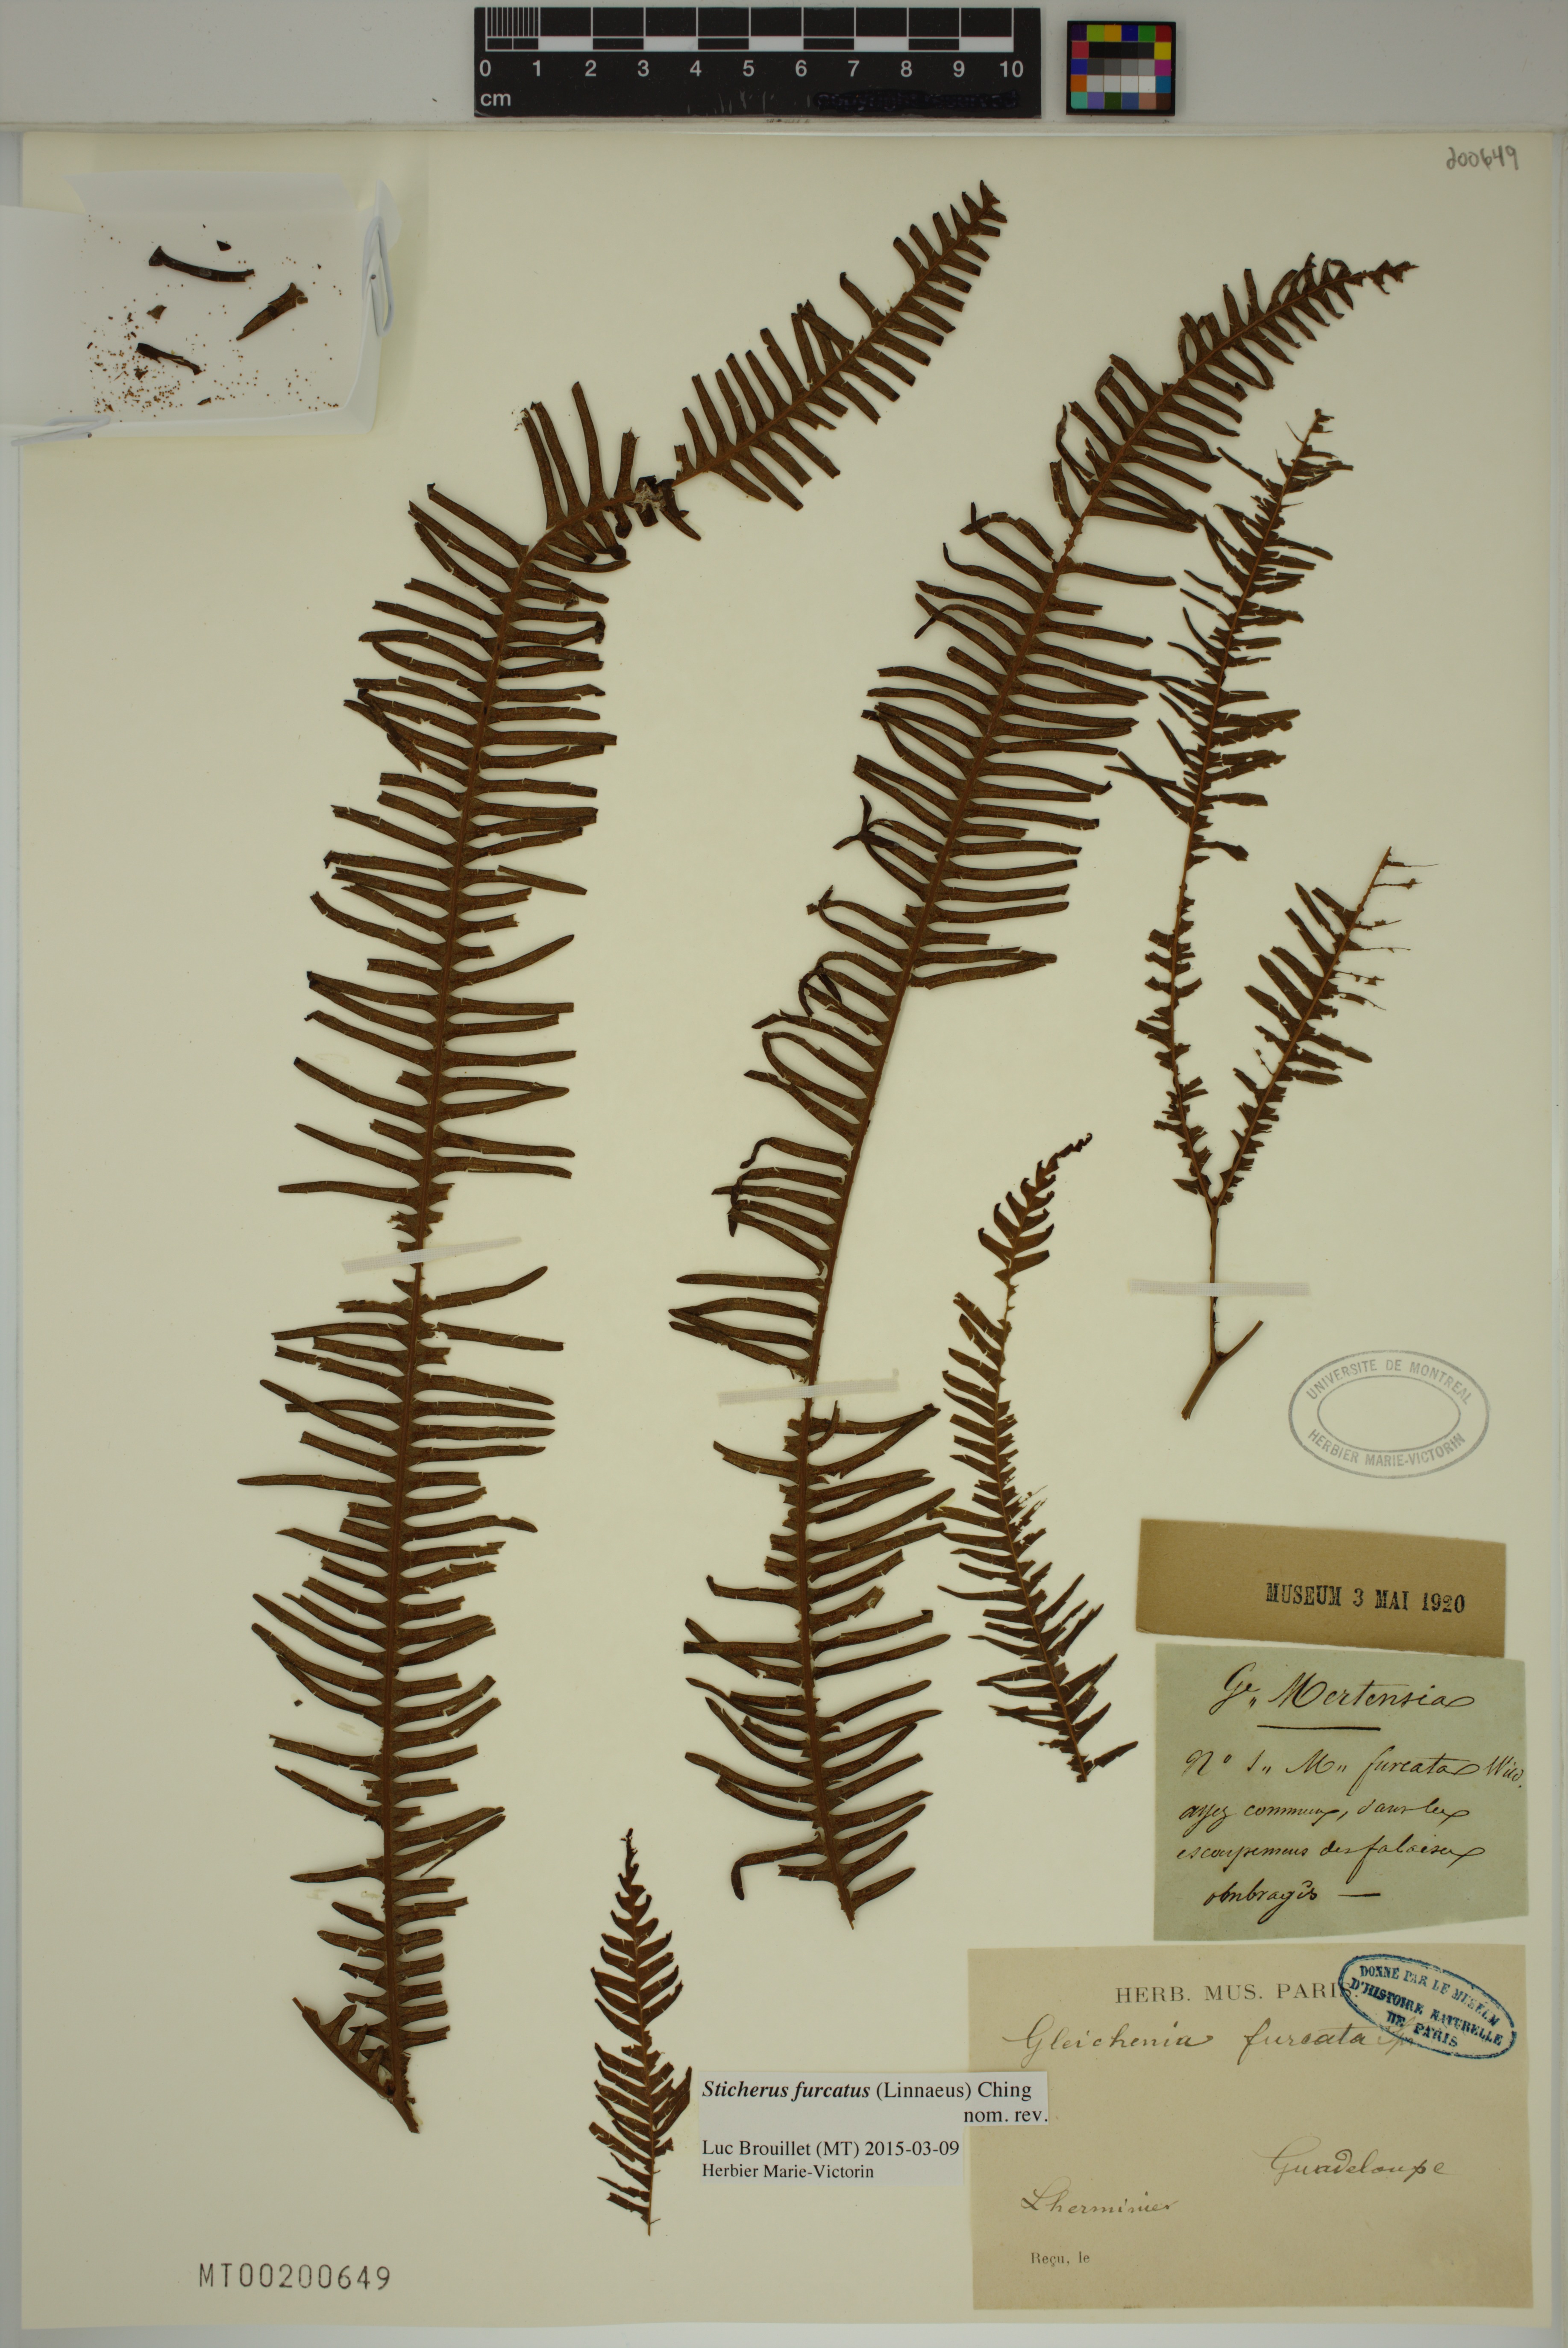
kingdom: Plantae
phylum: Tracheophyta
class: Polypodiopsida
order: Gleicheniales
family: Gleicheniaceae
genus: Sticherus
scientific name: Sticherus furcatus
